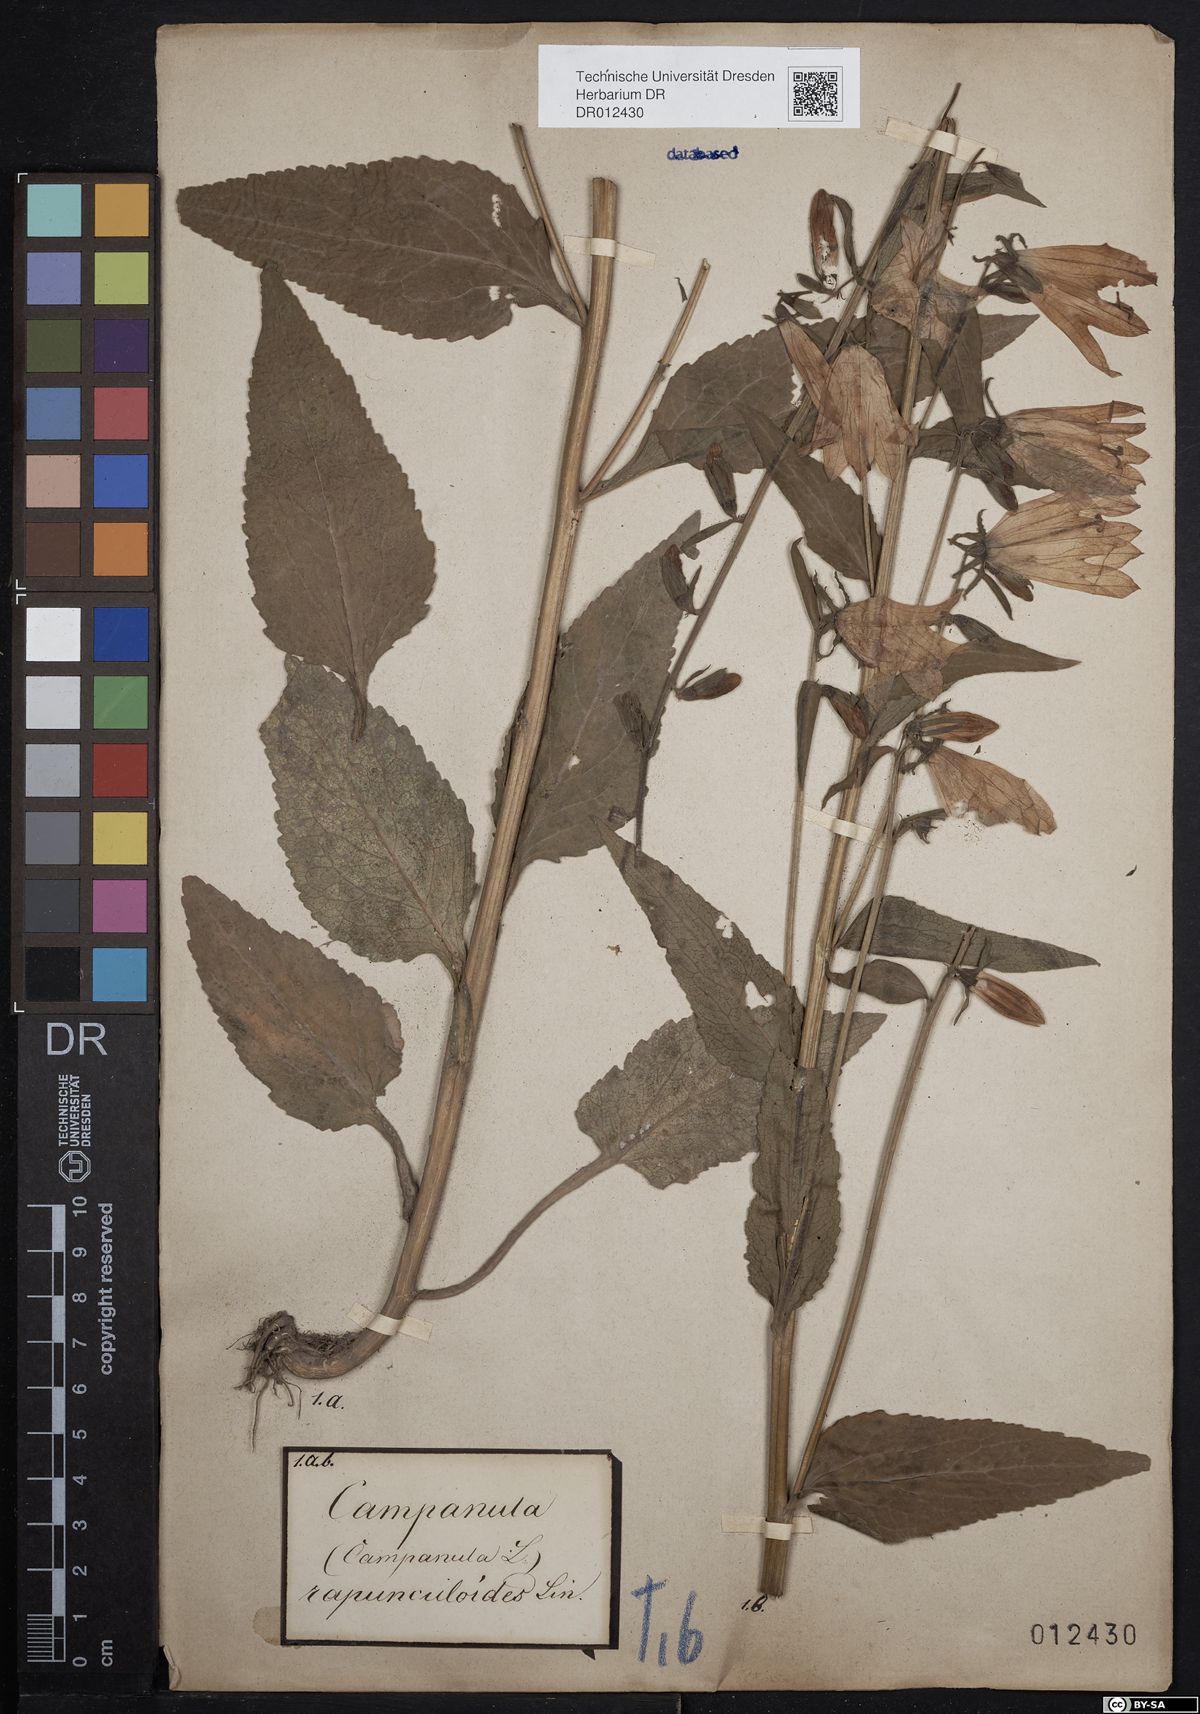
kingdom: Plantae
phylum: Tracheophyta
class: Magnoliopsida
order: Asterales
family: Campanulaceae
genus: Campanula
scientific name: Campanula rapunculoides
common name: Creeping bellflower
